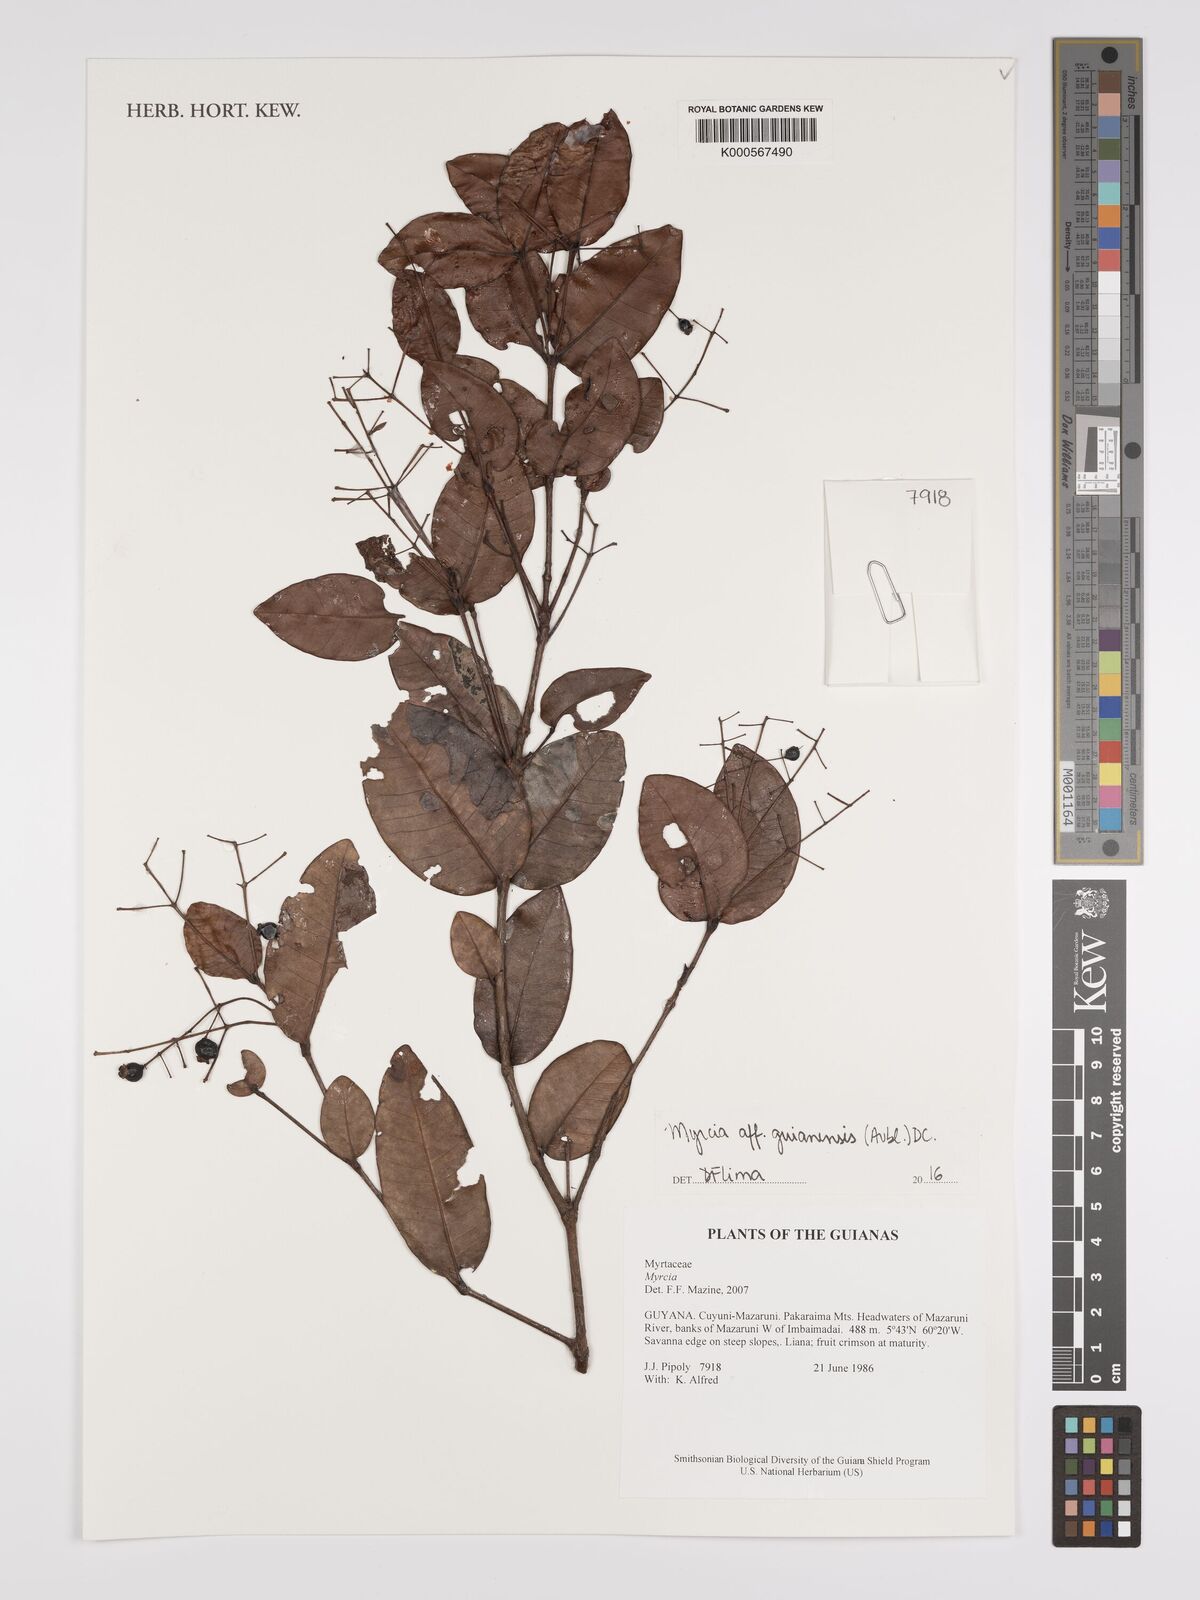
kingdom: Plantae
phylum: Tracheophyta
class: Magnoliopsida
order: Myrtales
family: Myrtaceae
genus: Myrcia
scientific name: Myrcia guianensis
